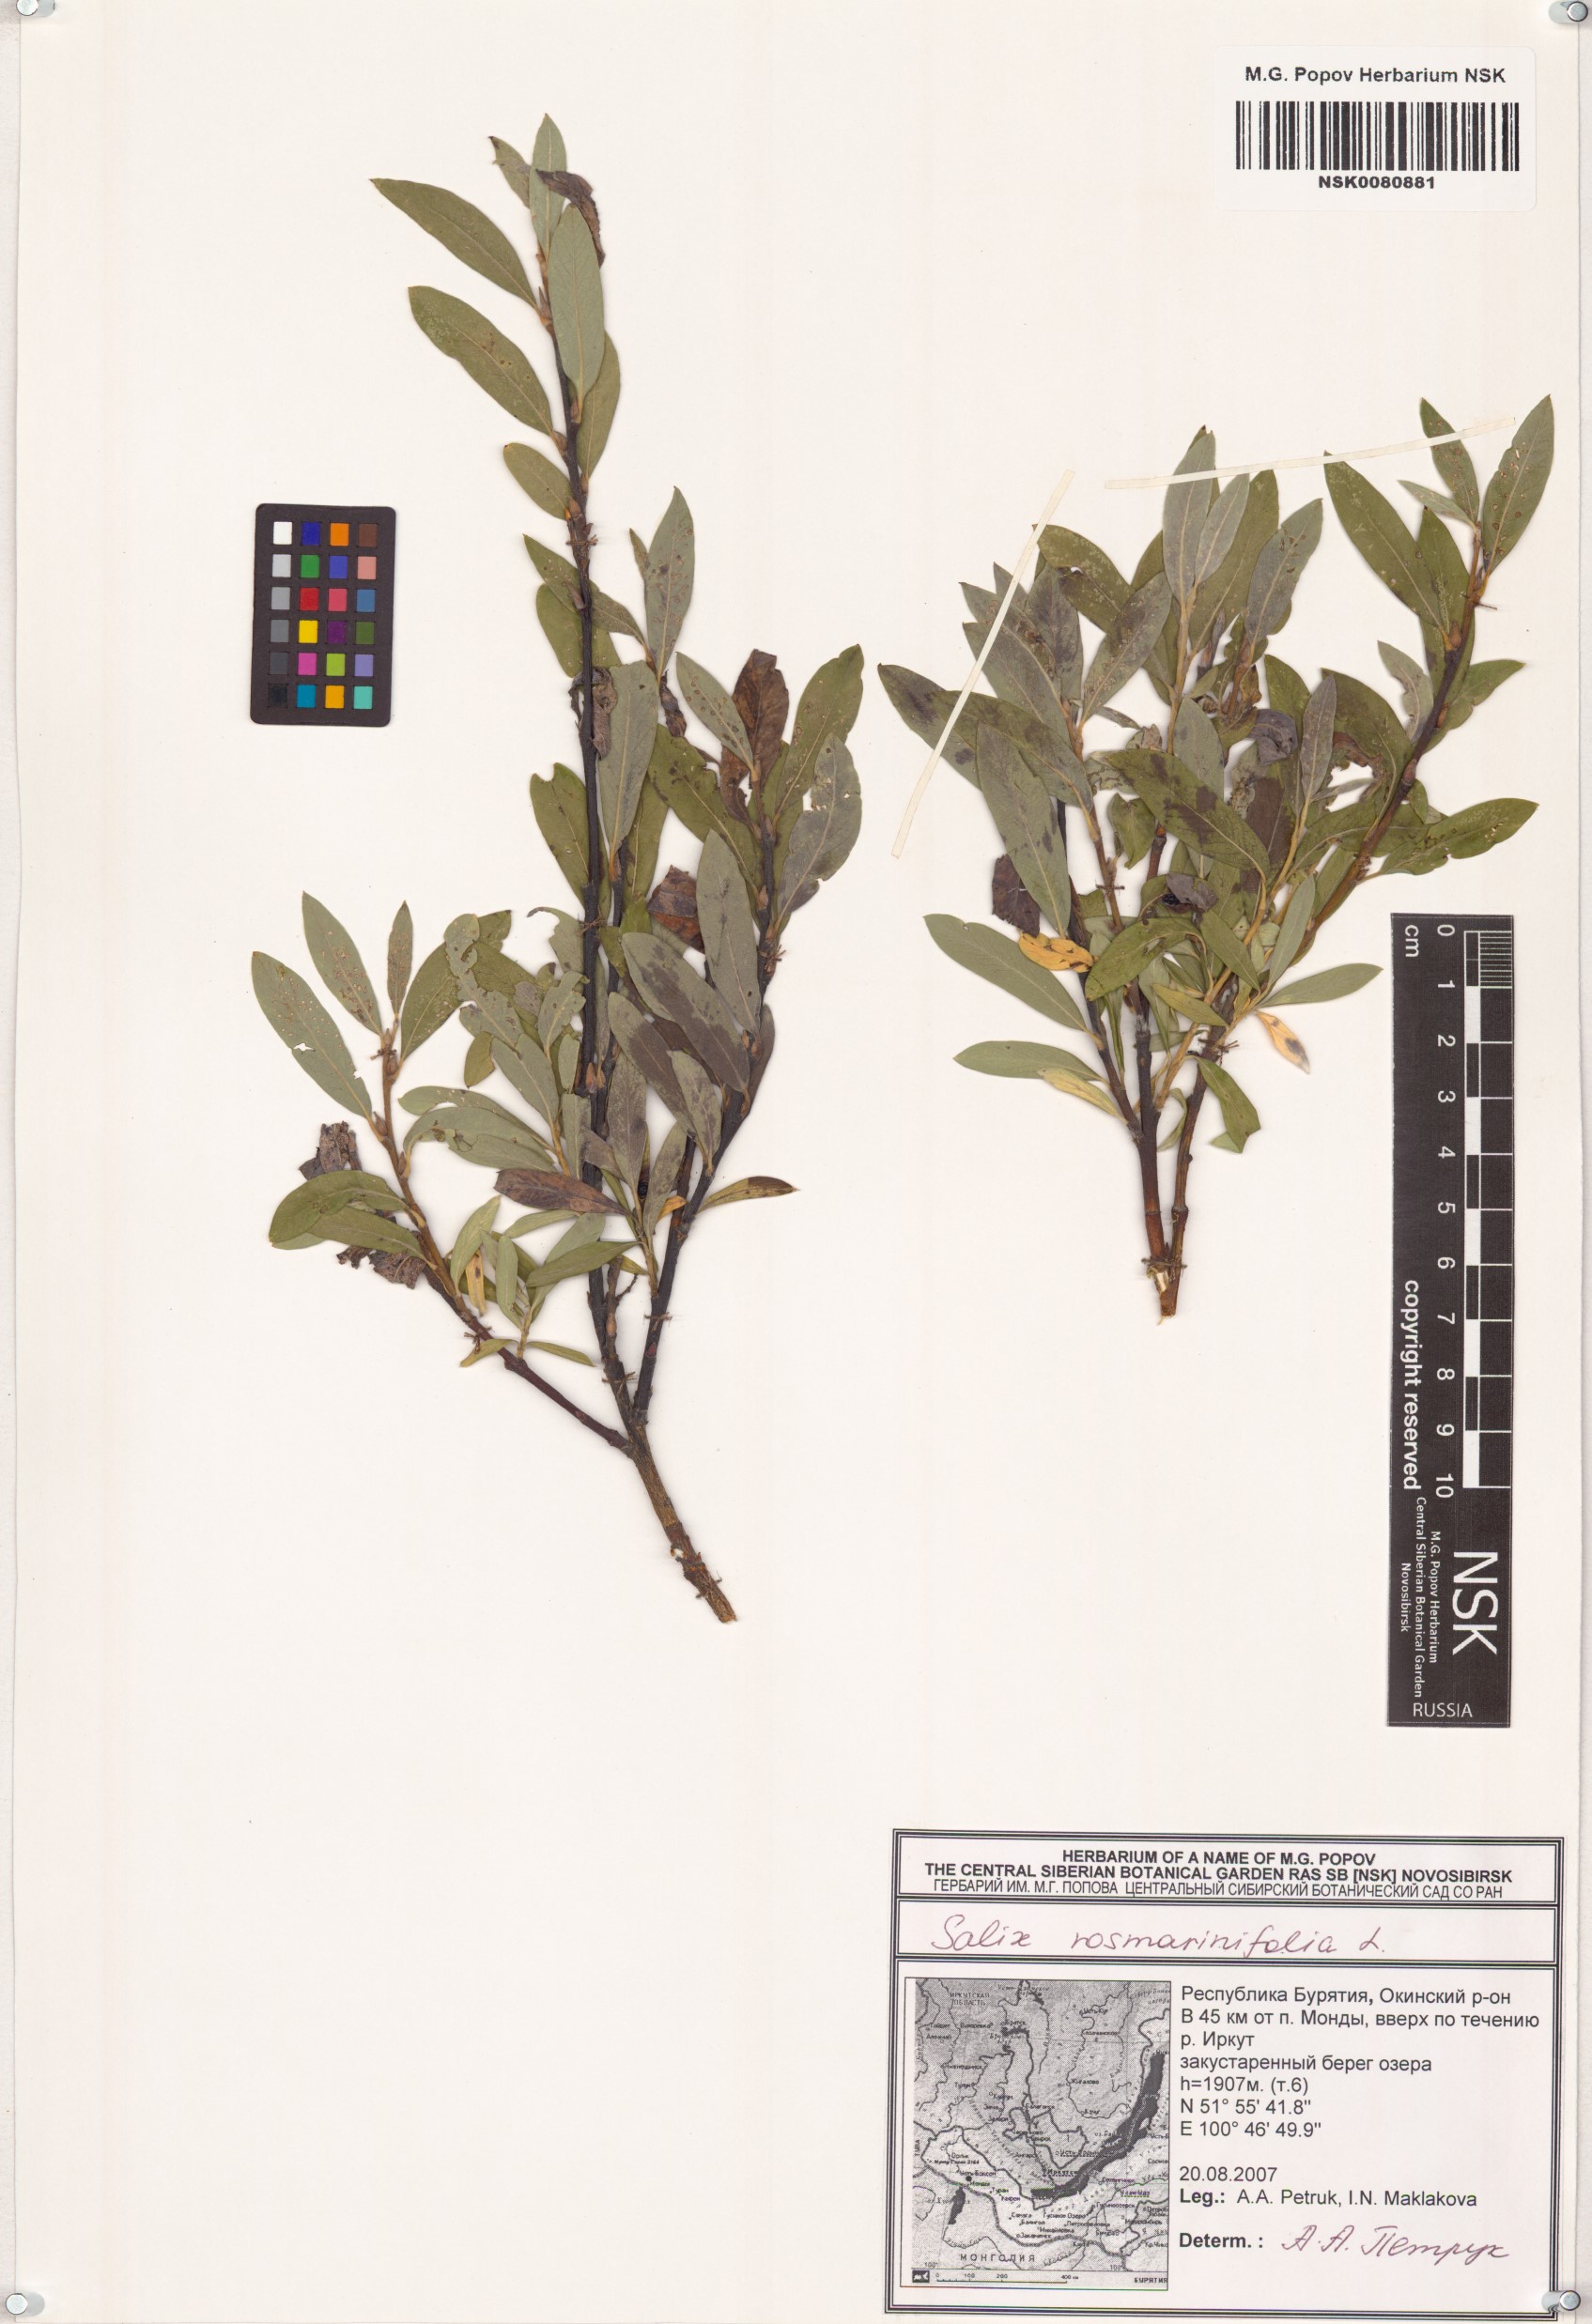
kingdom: Plantae
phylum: Tracheophyta
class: Magnoliopsida
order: Malpighiales
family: Salicaceae
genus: Salix
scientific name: Salix rosmarinifolia
